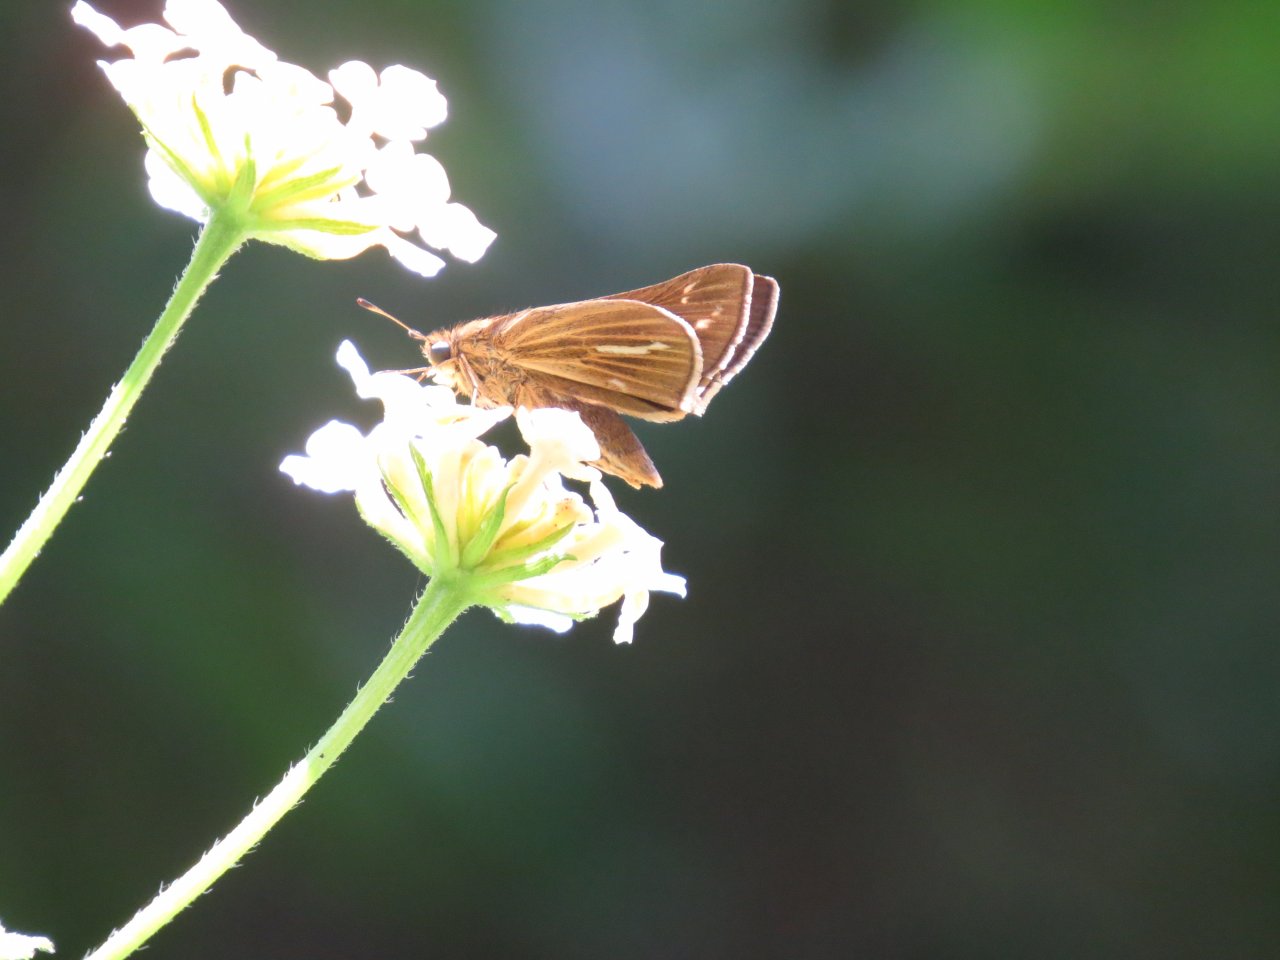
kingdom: Animalia
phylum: Arthropoda
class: Insecta
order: Lepidoptera
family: Hesperiidae
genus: Panoquina
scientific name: Panoquina panoquin
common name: Salt Marsh Skipper
